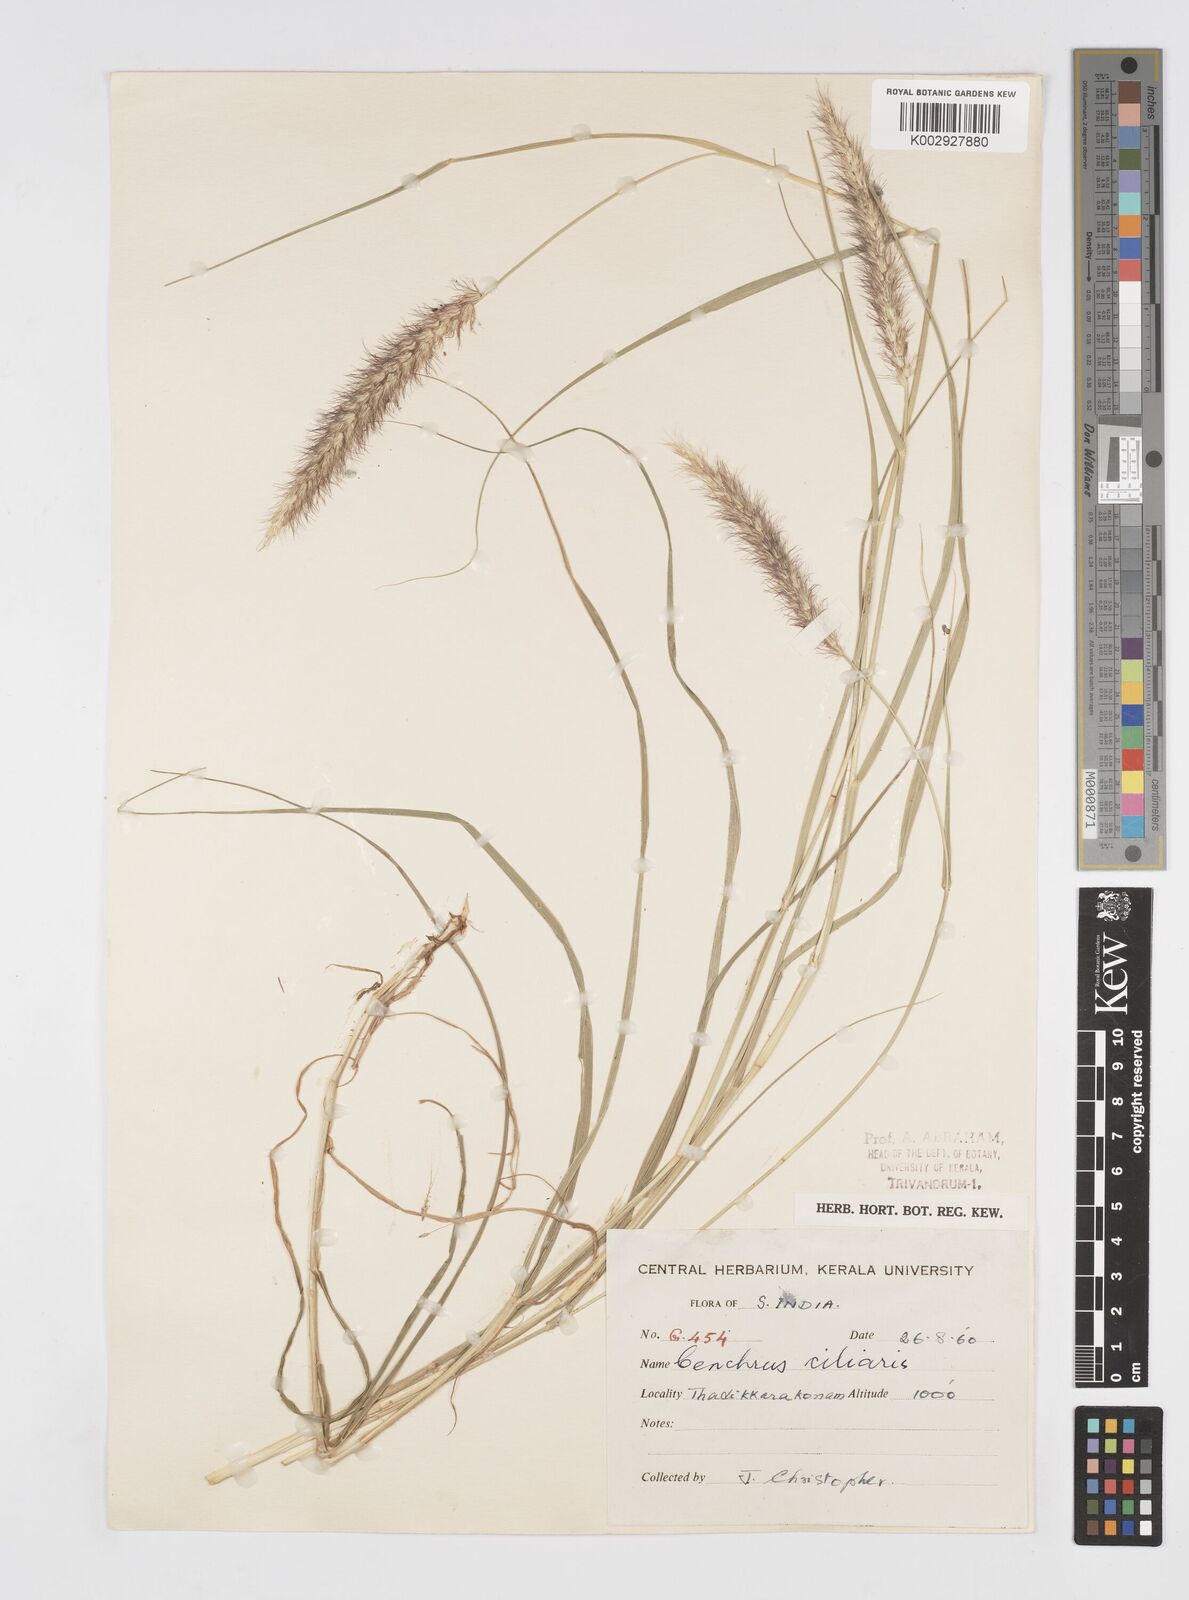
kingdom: Plantae
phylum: Tracheophyta
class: Liliopsida
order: Poales
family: Poaceae
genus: Cenchrus
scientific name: Cenchrus ciliaris
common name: Buffelgrass
